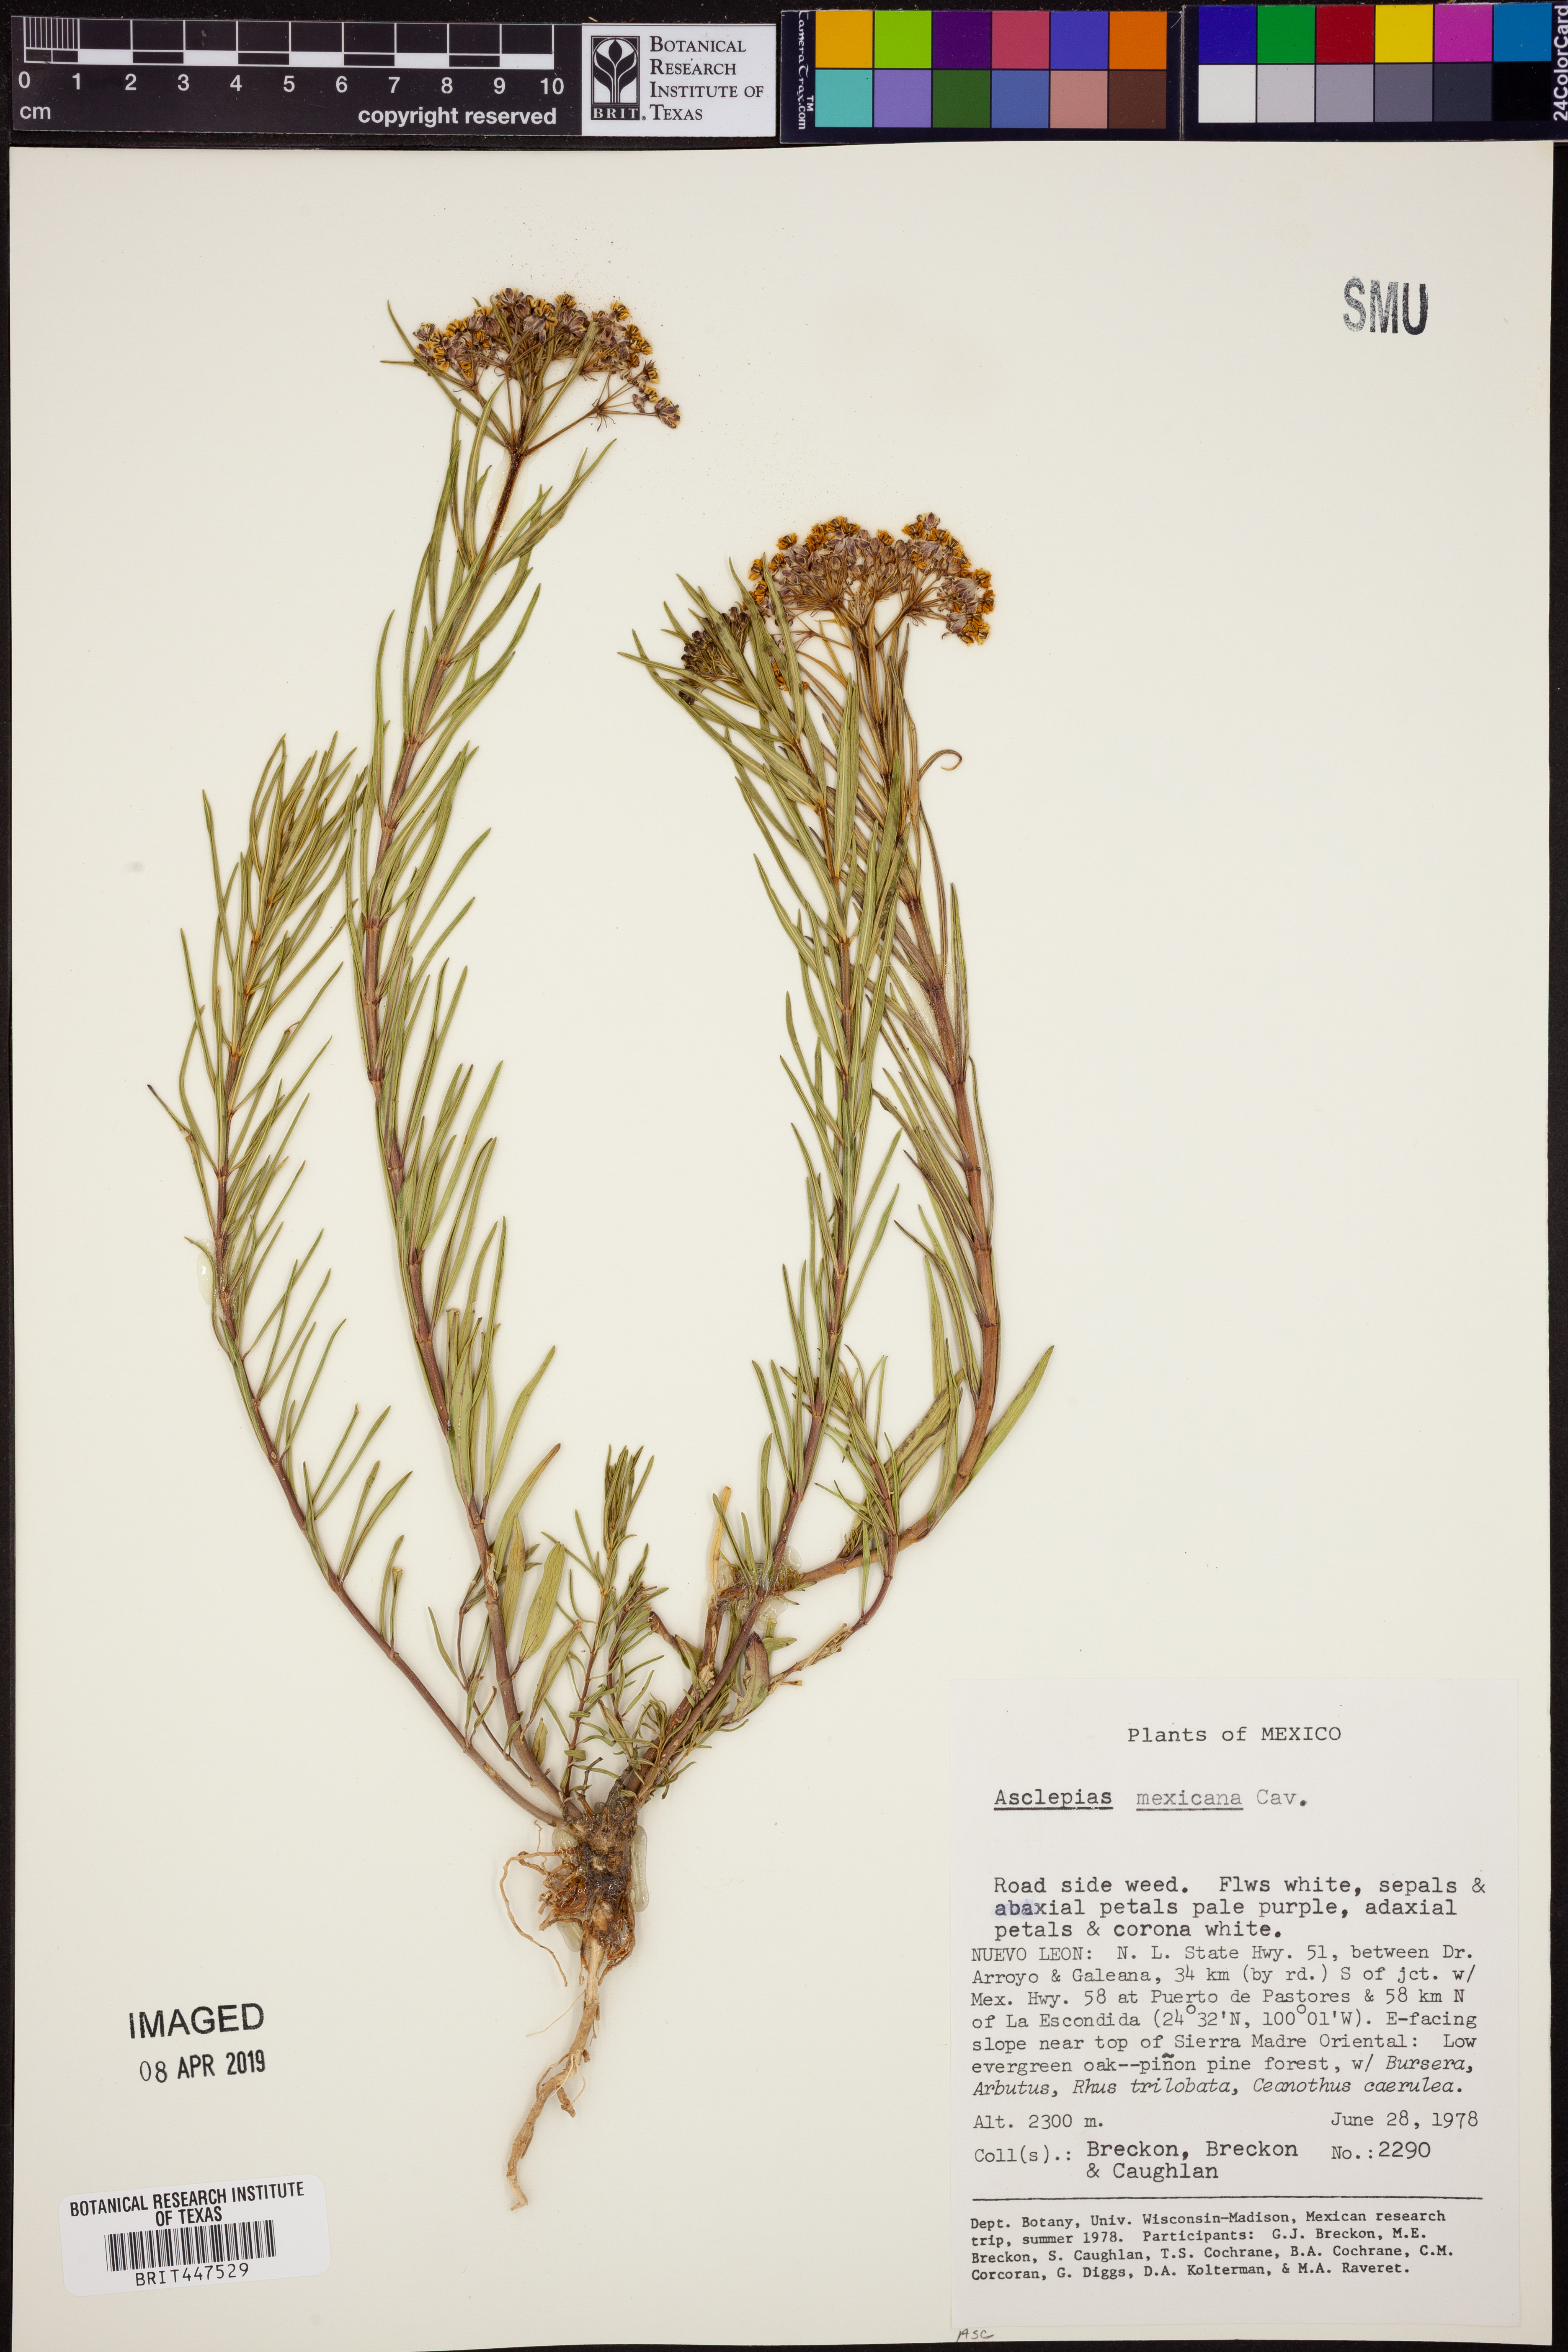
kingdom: Plantae
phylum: Tracheophyta
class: Magnoliopsida
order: Gentianales
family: Apocynaceae
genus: Asclepias
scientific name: Asclepias mexicana
